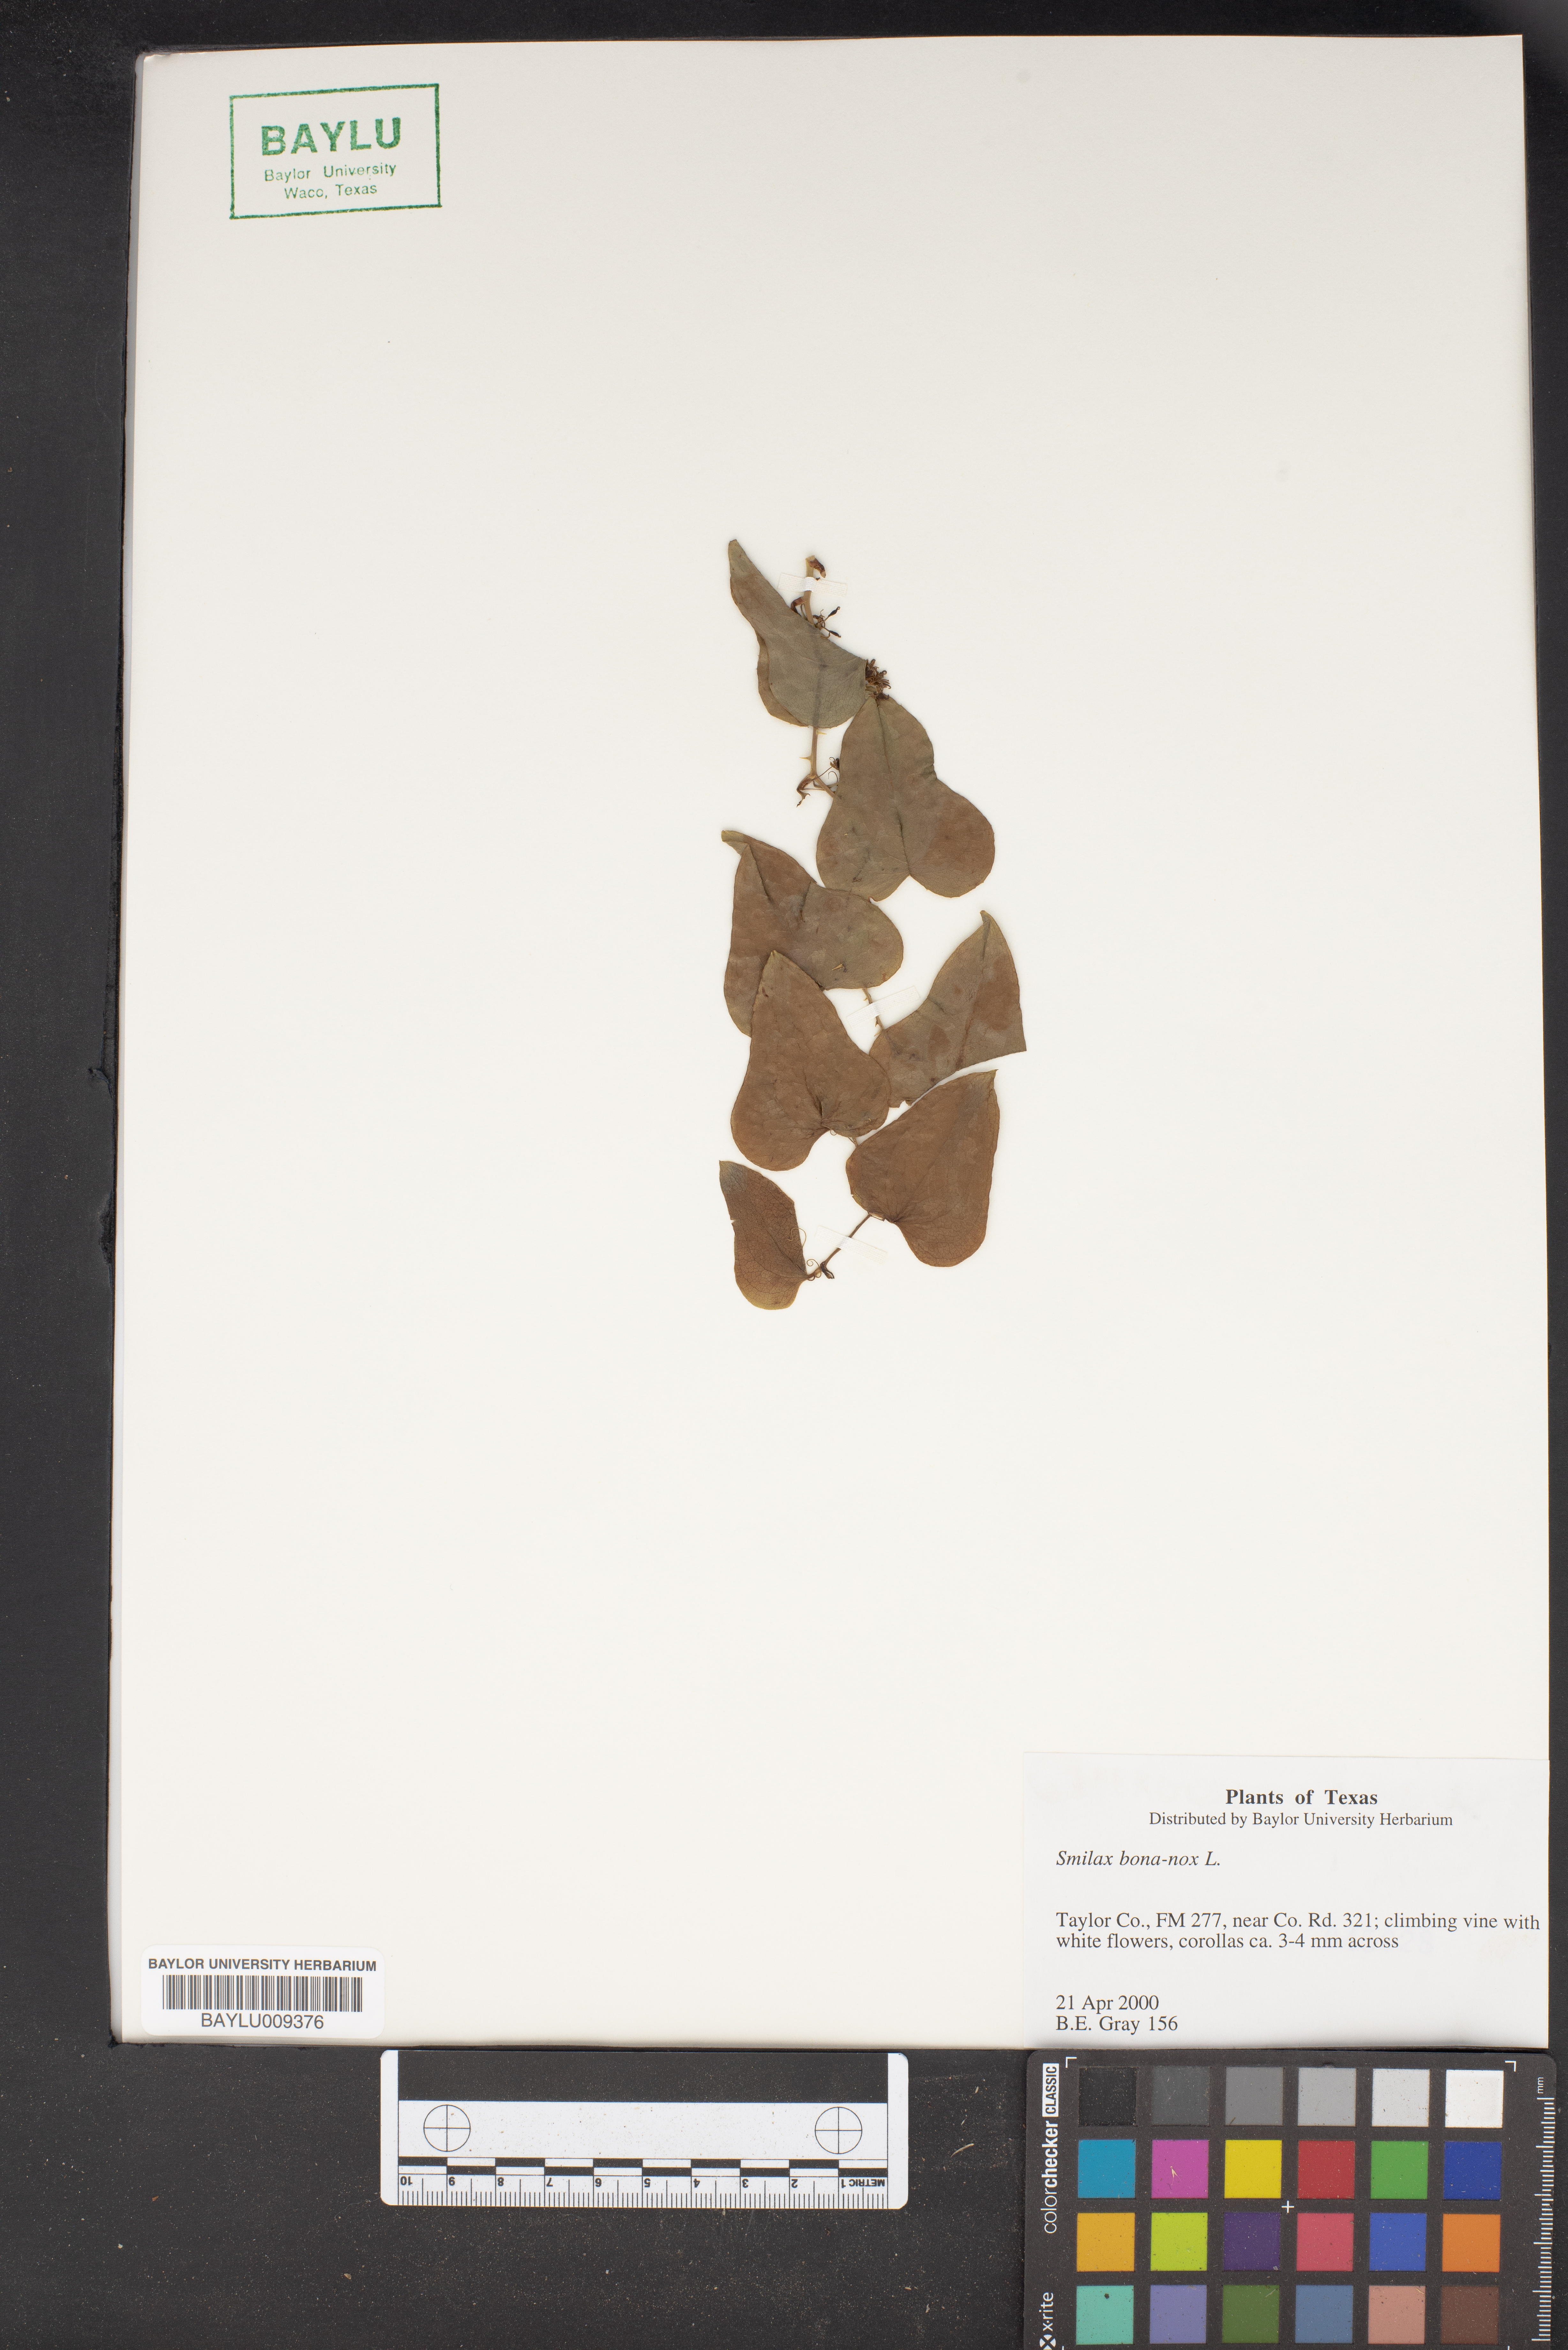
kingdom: Plantae
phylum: Tracheophyta
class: Liliopsida
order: Liliales
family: Smilacaceae
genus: Smilax
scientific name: Smilax bona-nox
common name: Catbrier
